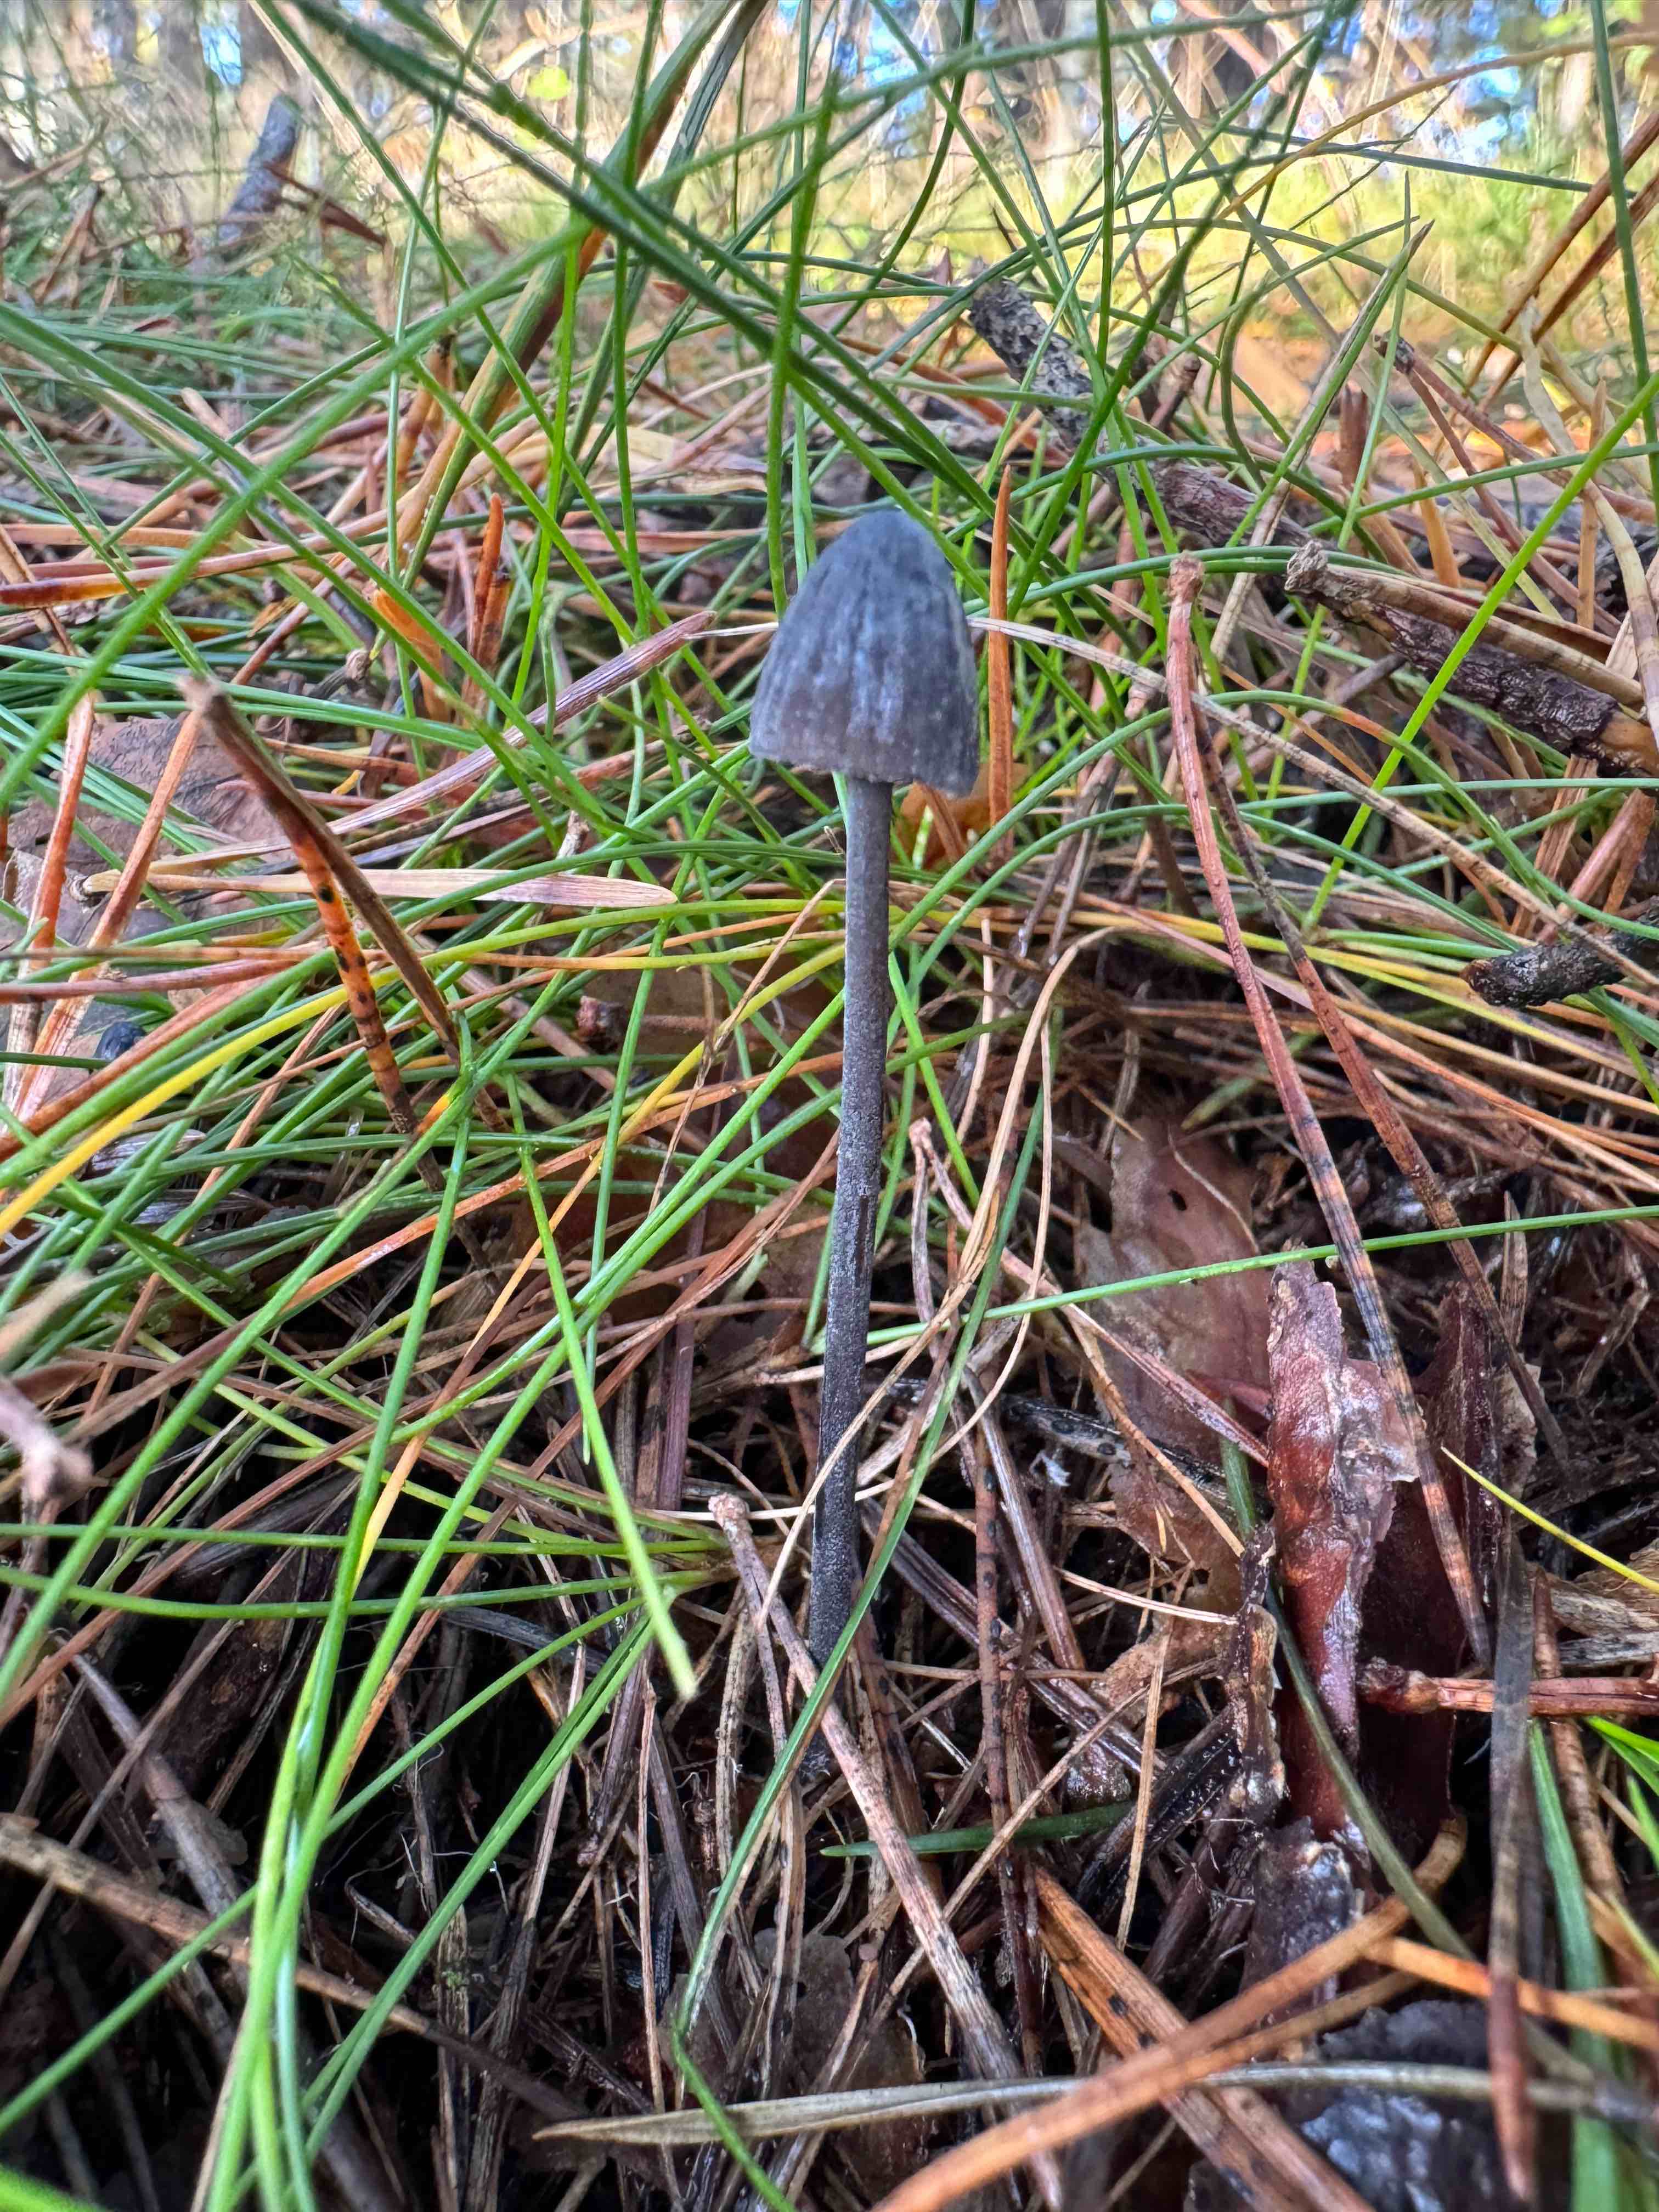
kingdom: Fungi
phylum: Basidiomycota
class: Agaricomycetes
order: Agaricales
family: Mycenaceae
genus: Mycena
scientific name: Mycena galopus
